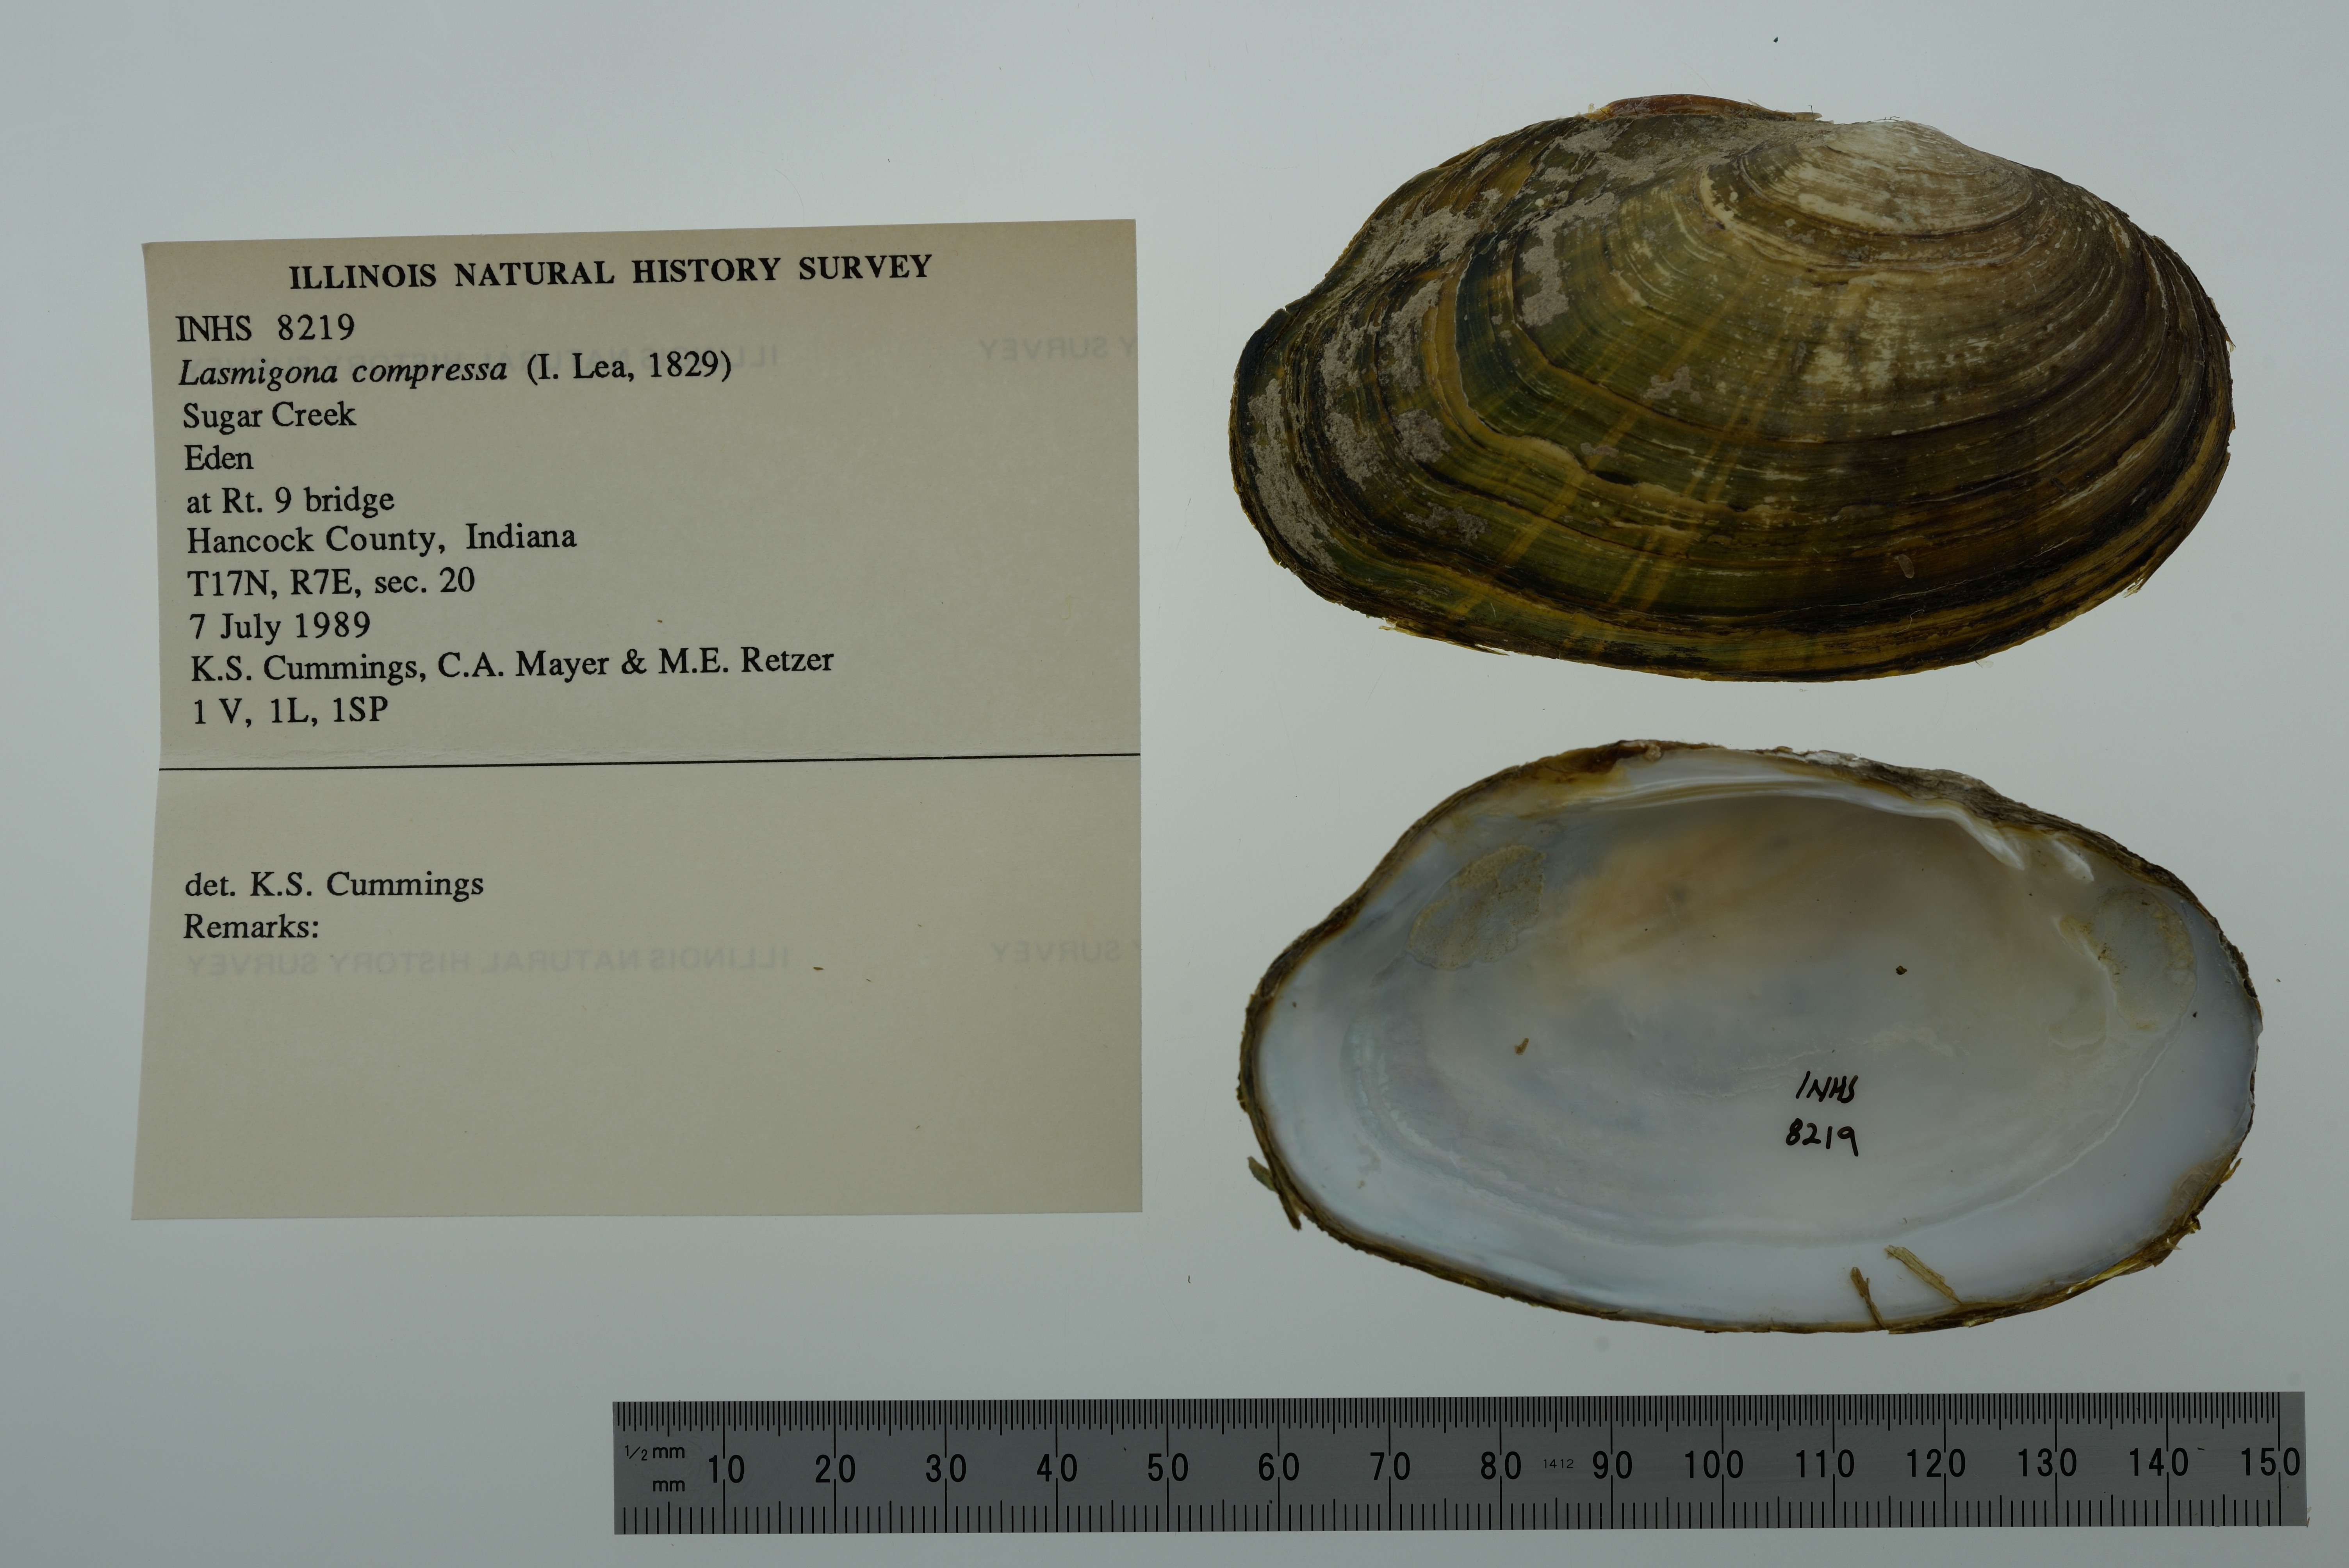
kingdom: Animalia
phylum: Mollusca
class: Bivalvia
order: Unionida
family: Unionidae
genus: Lasmigona
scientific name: Lasmigona compressa
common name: Creek heelsplitter
